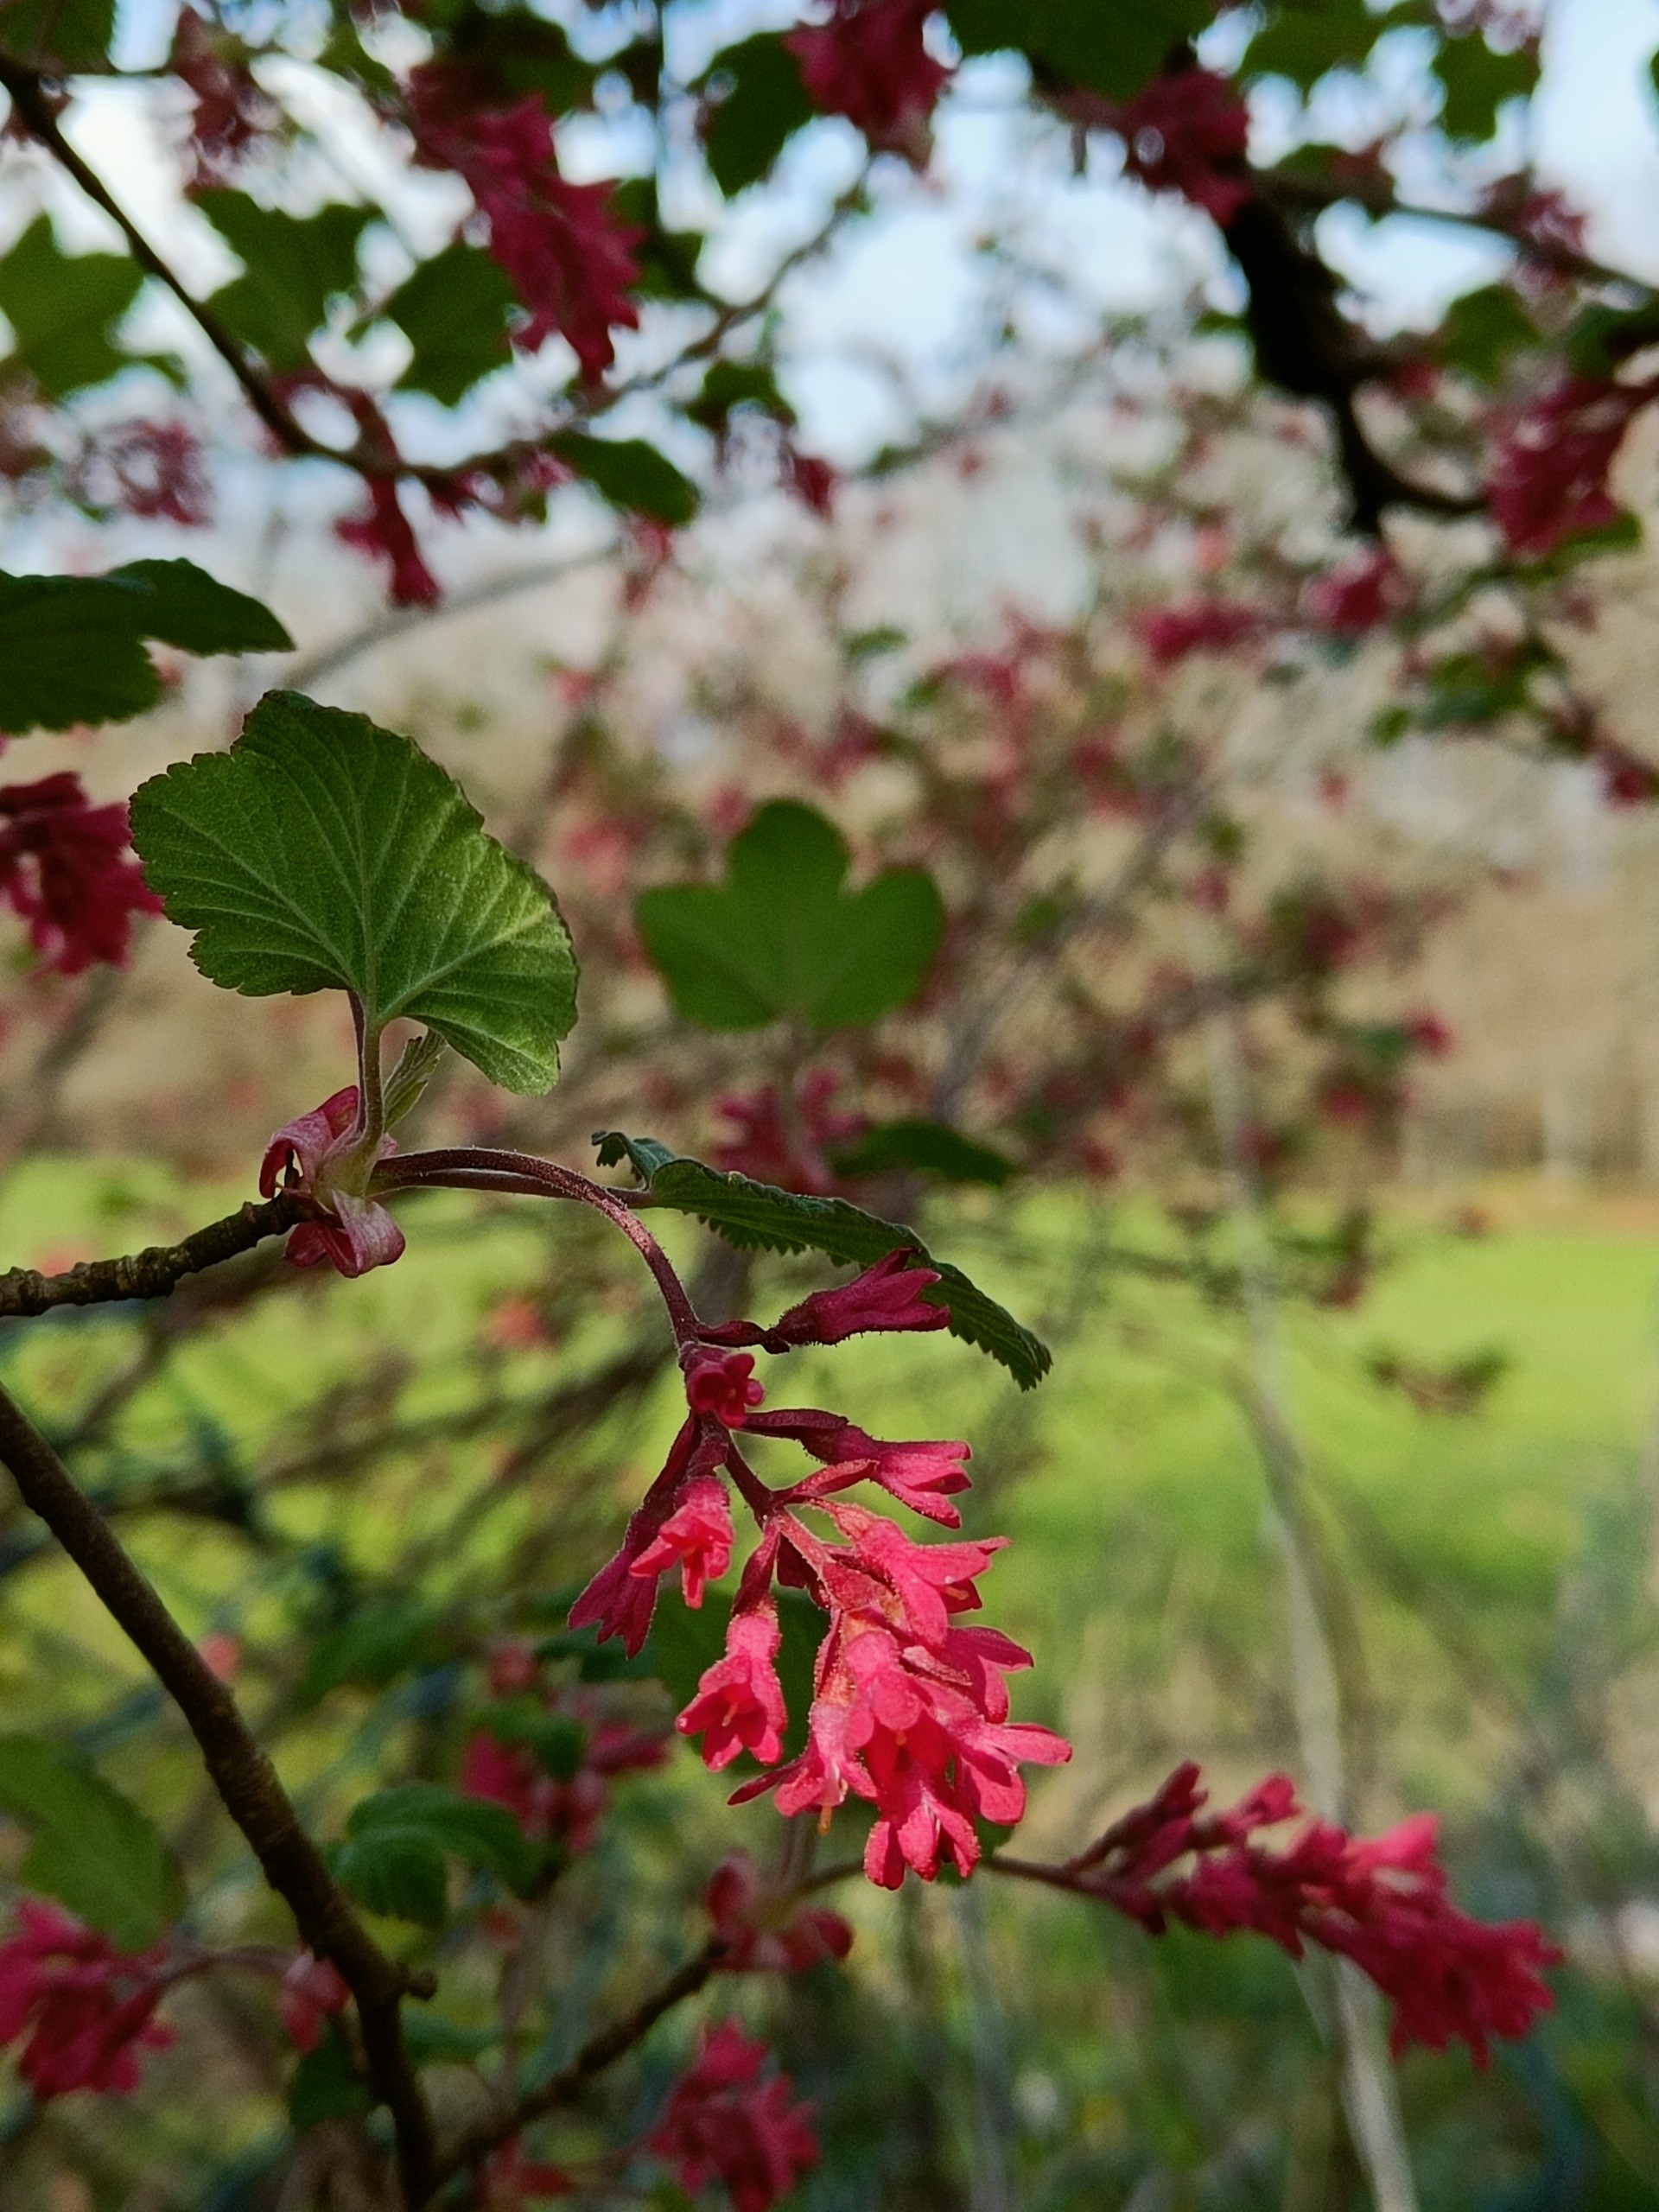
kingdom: Plantae
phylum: Tracheophyta
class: Magnoliopsida
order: Saxifragales
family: Grossulariaceae
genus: Ribes
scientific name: Ribes sanguineum
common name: Blod-ribs
